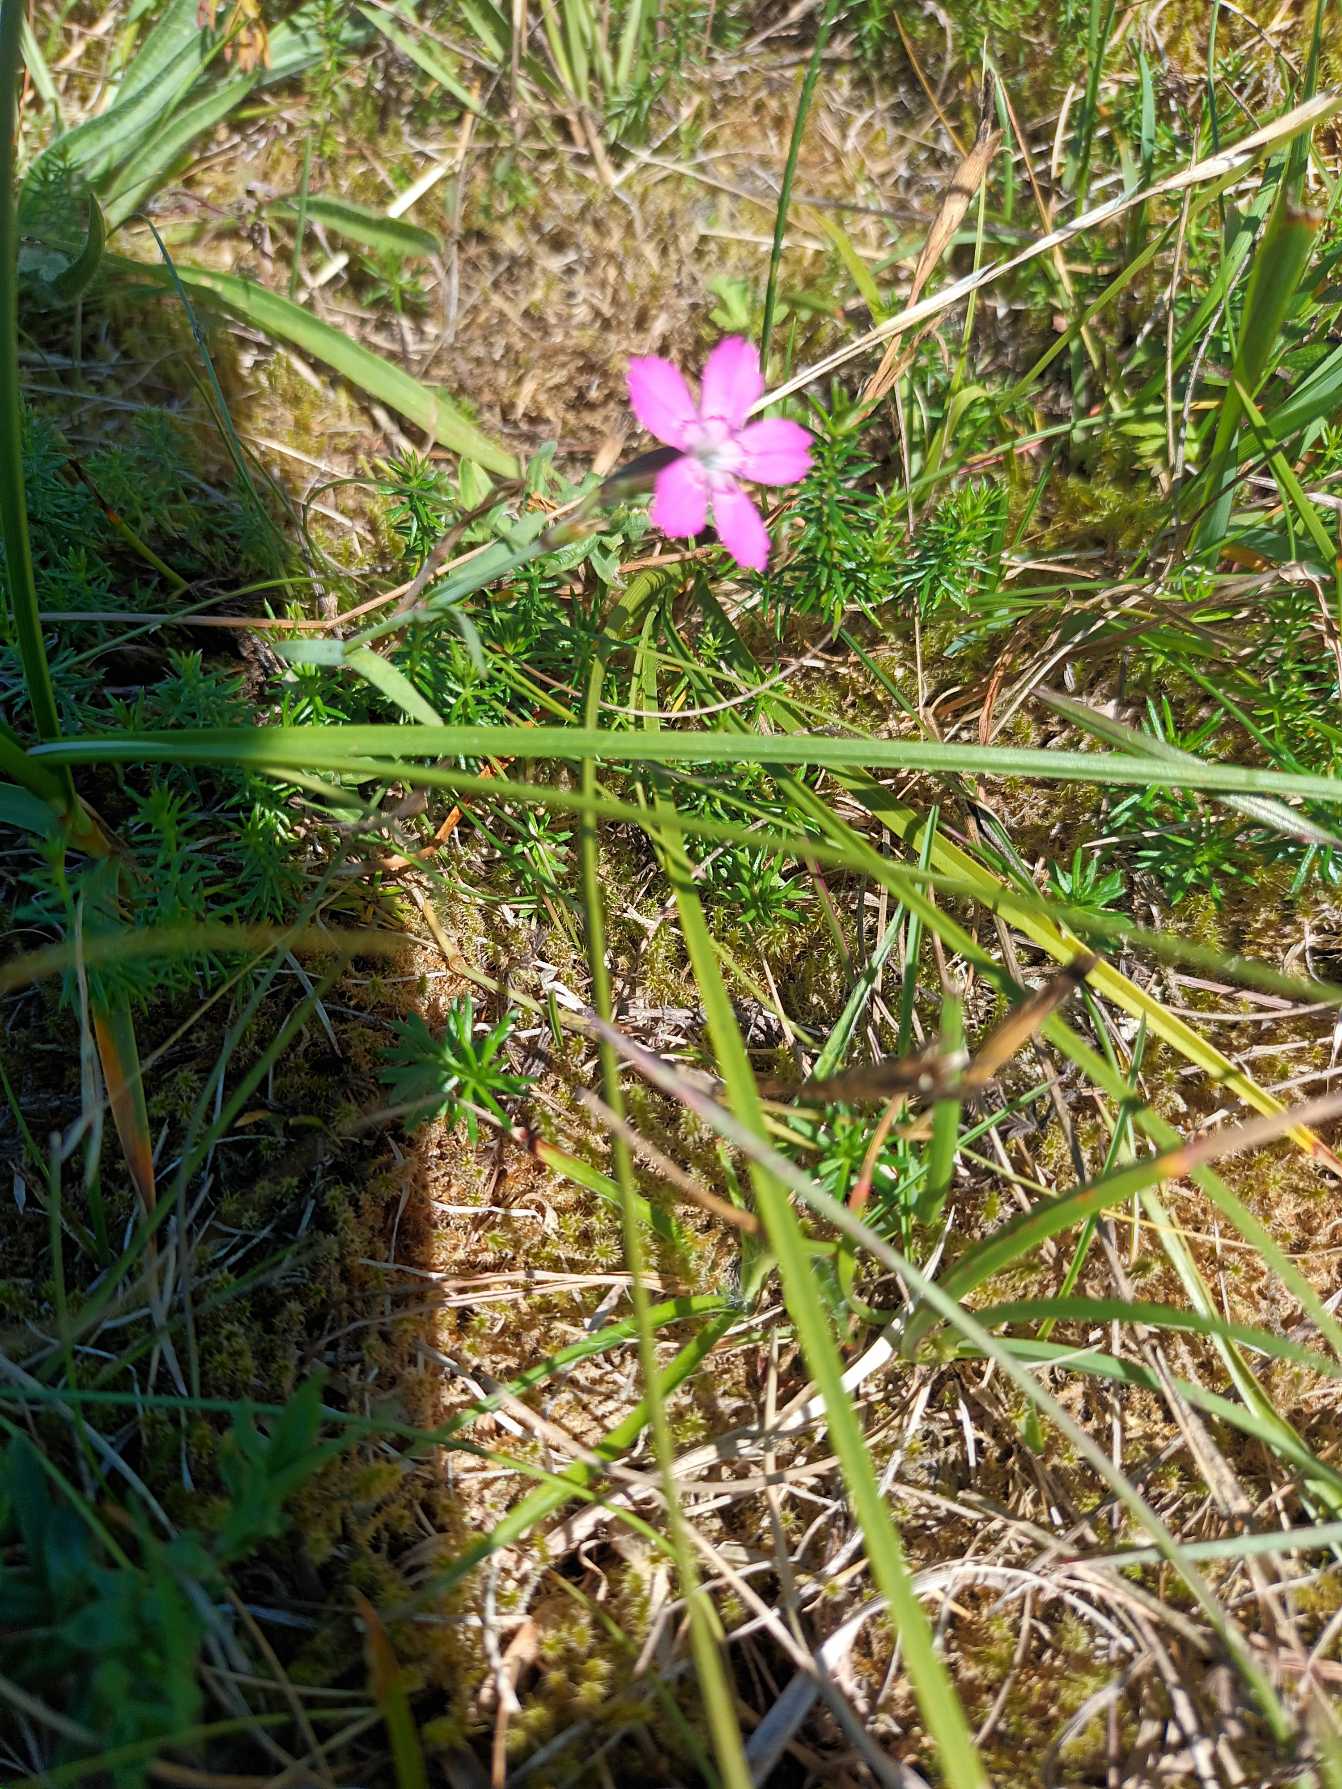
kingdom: Plantae
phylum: Tracheophyta
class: Magnoliopsida
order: Caryophyllales
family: Caryophyllaceae
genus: Dianthus
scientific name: Dianthus deltoides
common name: Bakke-nellike
